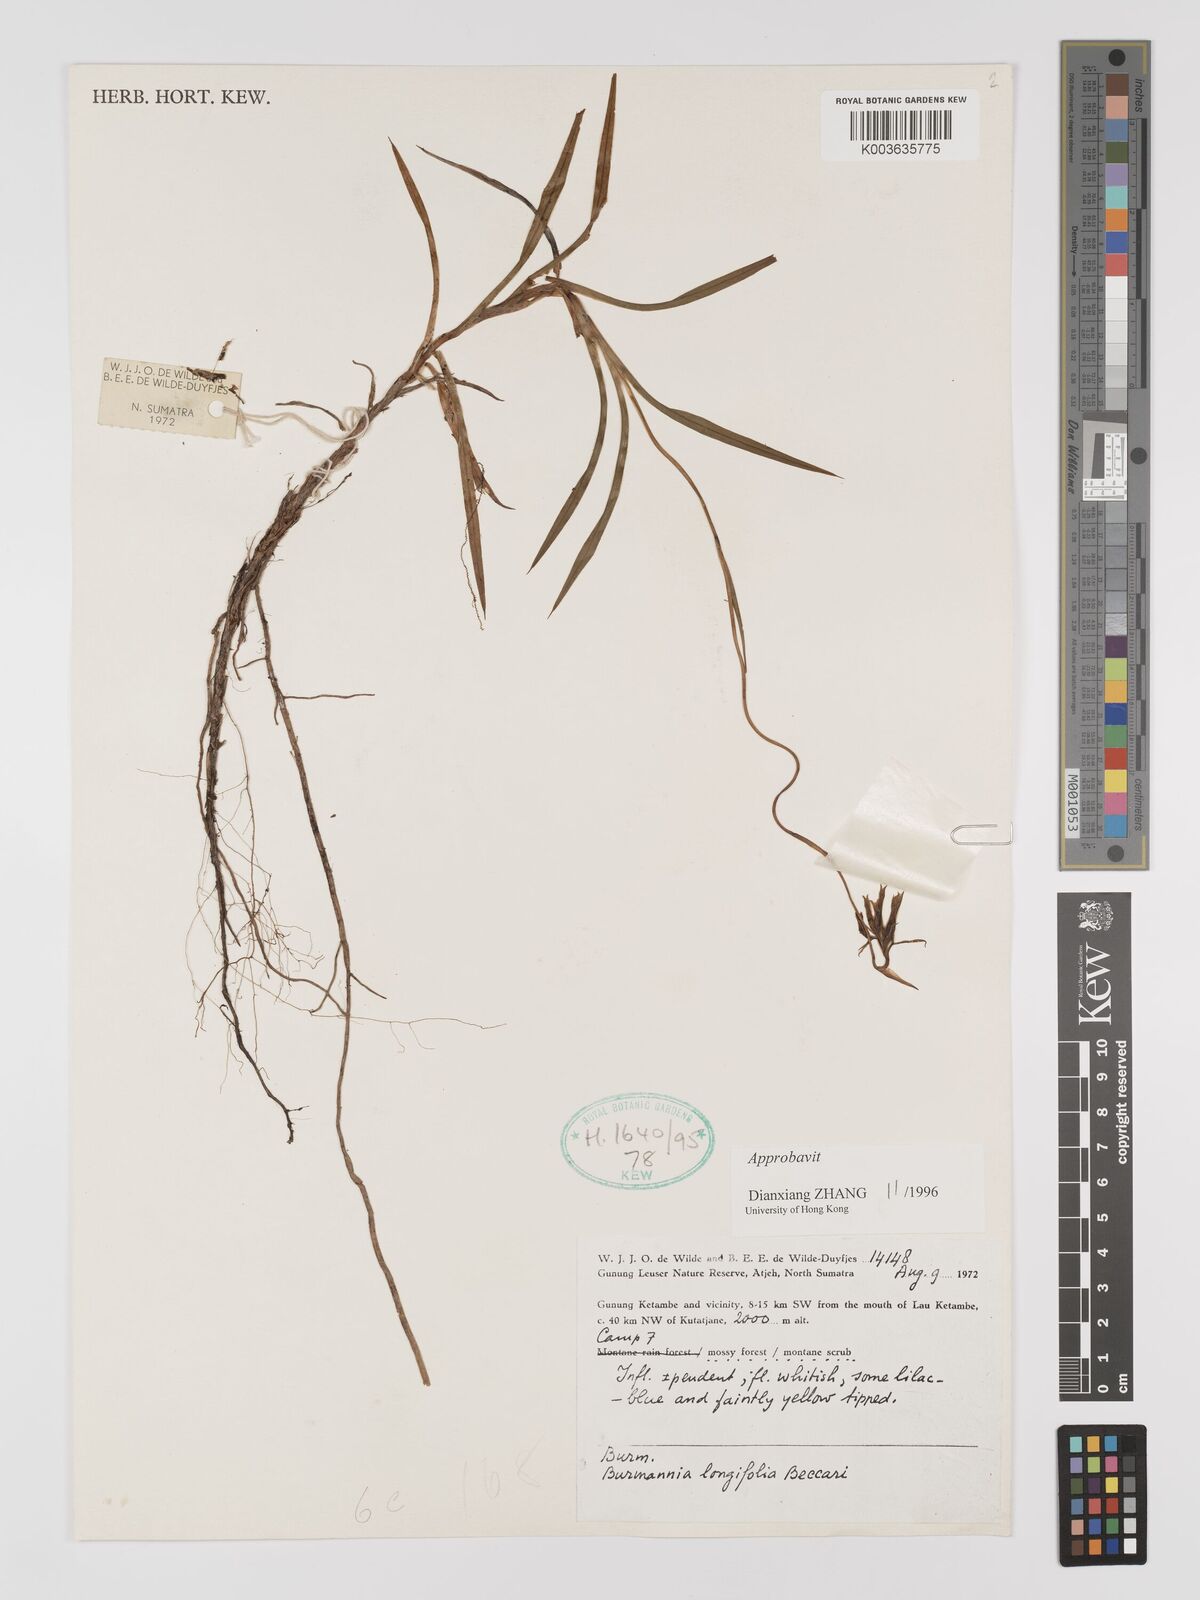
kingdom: Plantae
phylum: Tracheophyta
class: Liliopsida
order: Dioscoreales
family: Burmanniaceae
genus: Burmannia
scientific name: Burmannia longifolia
